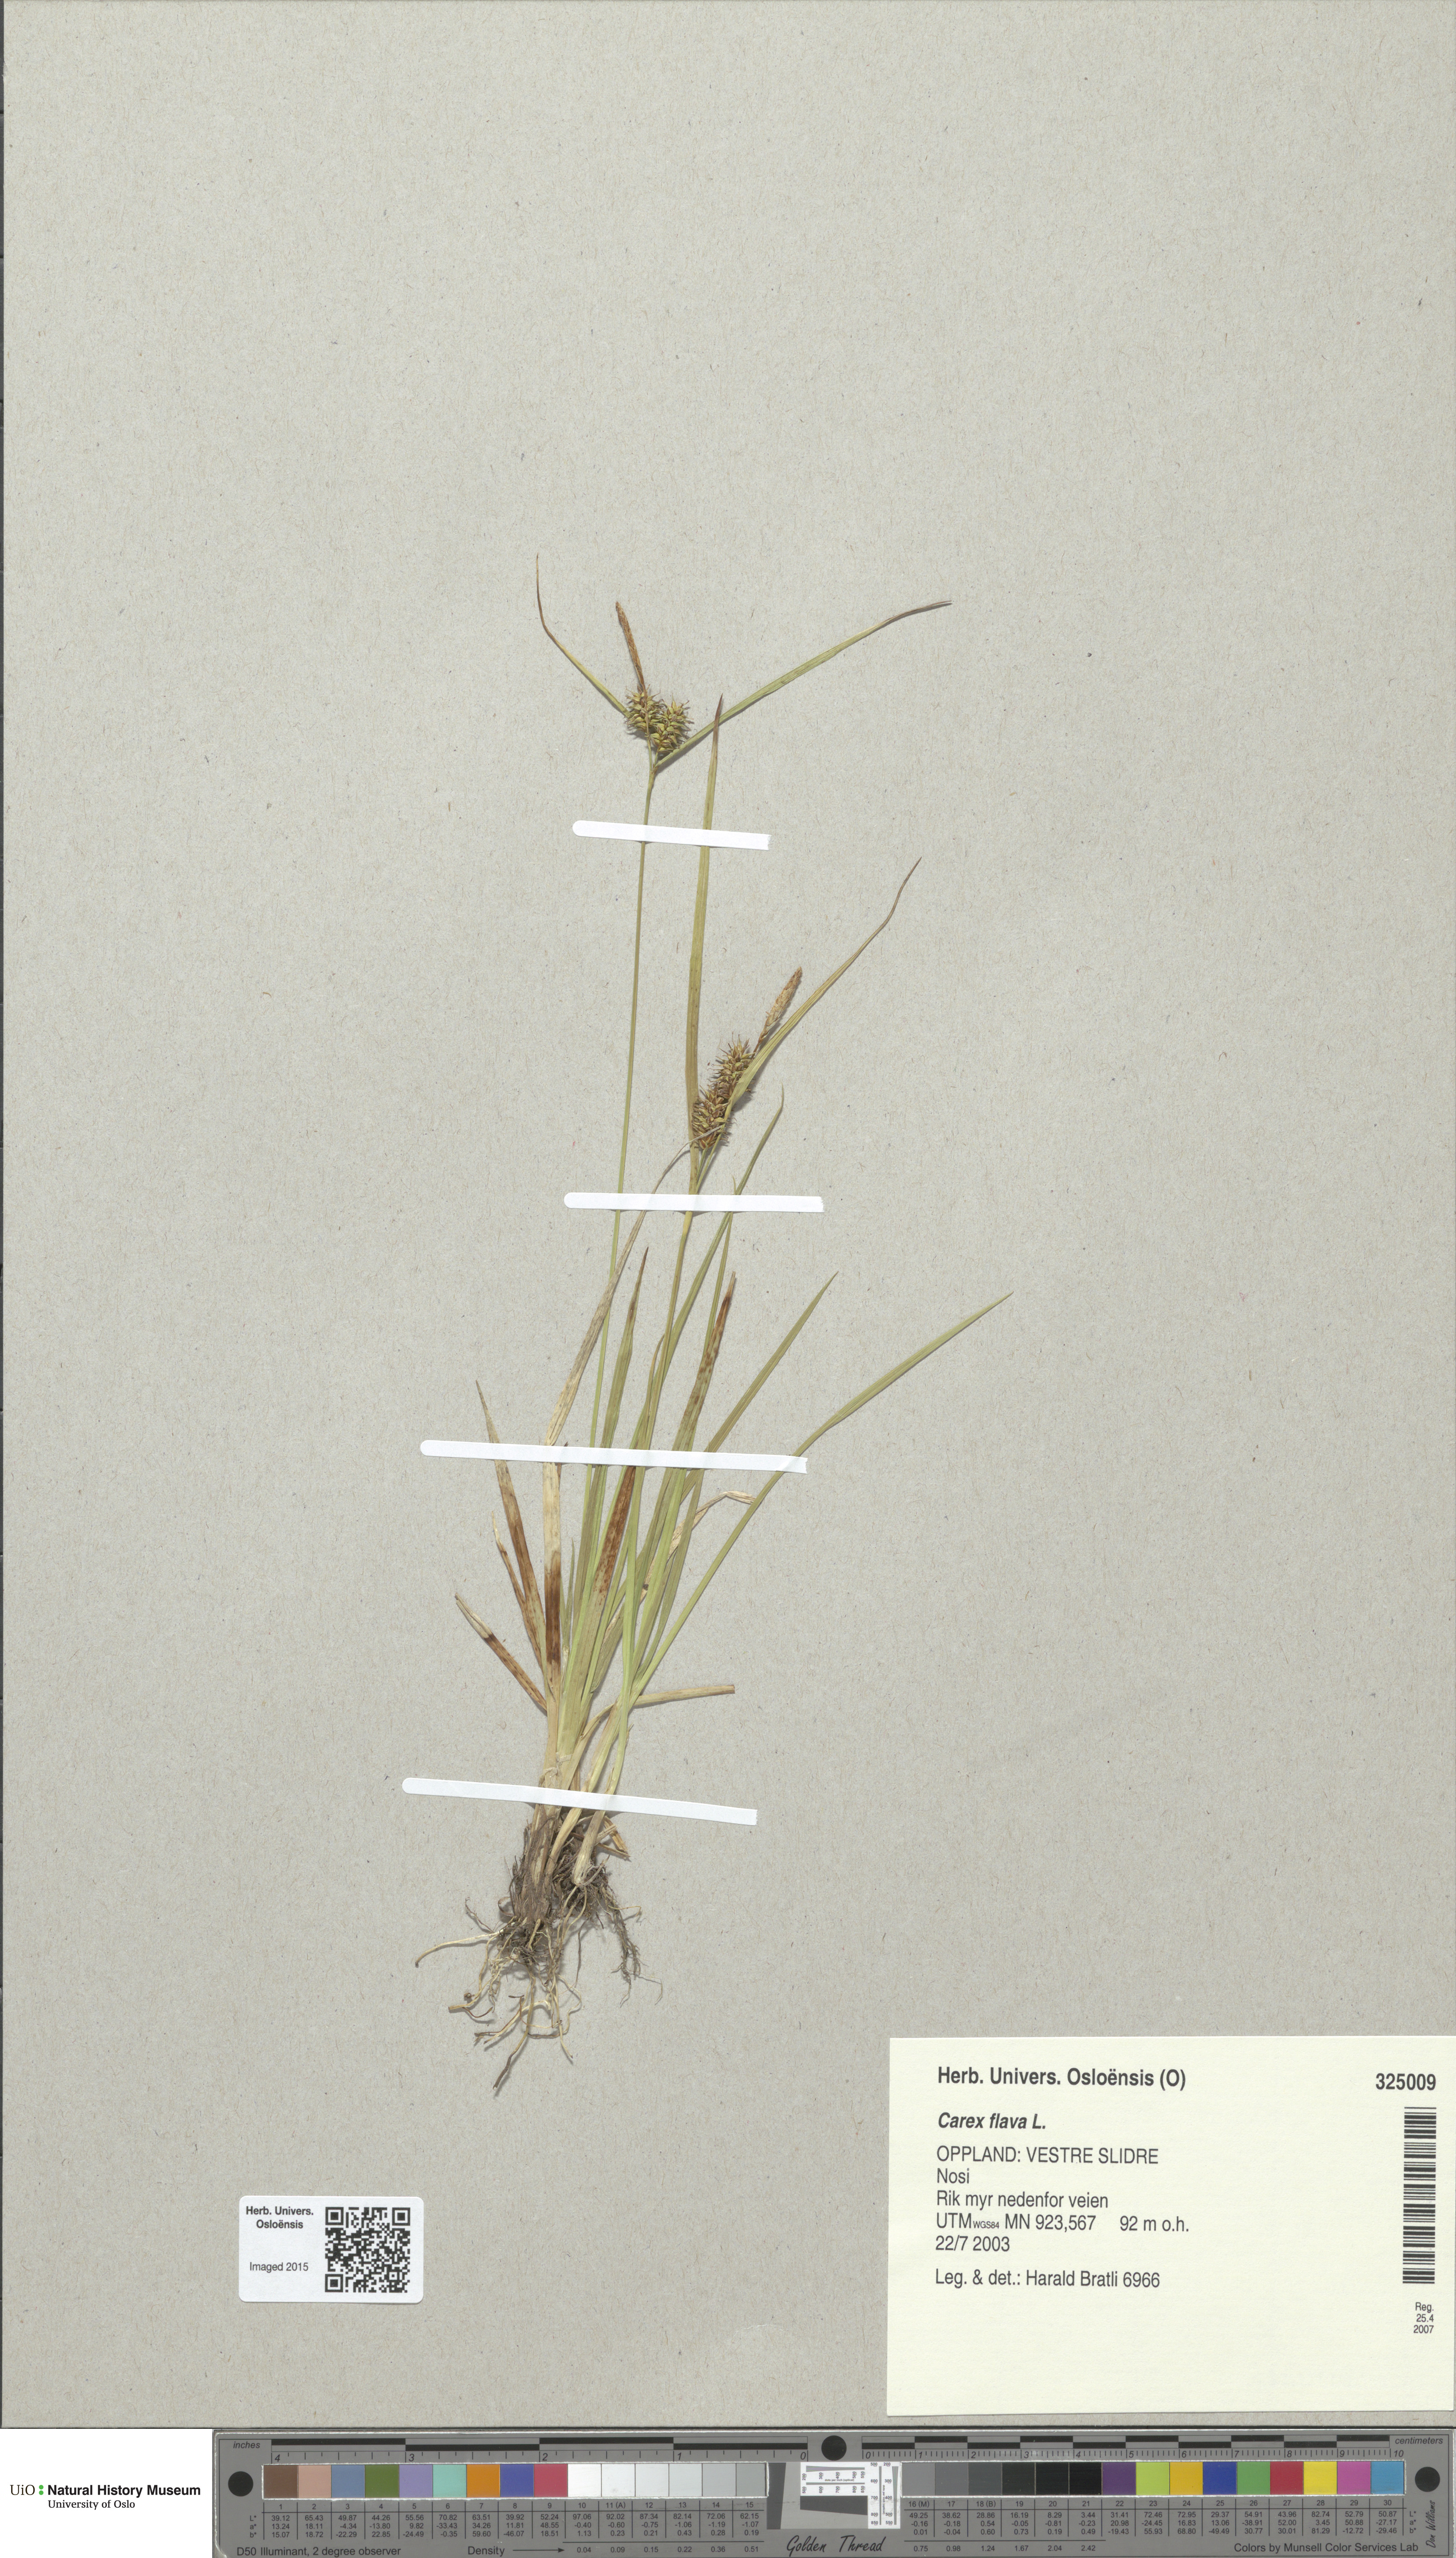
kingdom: Plantae
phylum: Tracheophyta
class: Liliopsida
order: Poales
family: Cyperaceae
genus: Carex
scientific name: Carex flava
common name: Large yellow-sedge
